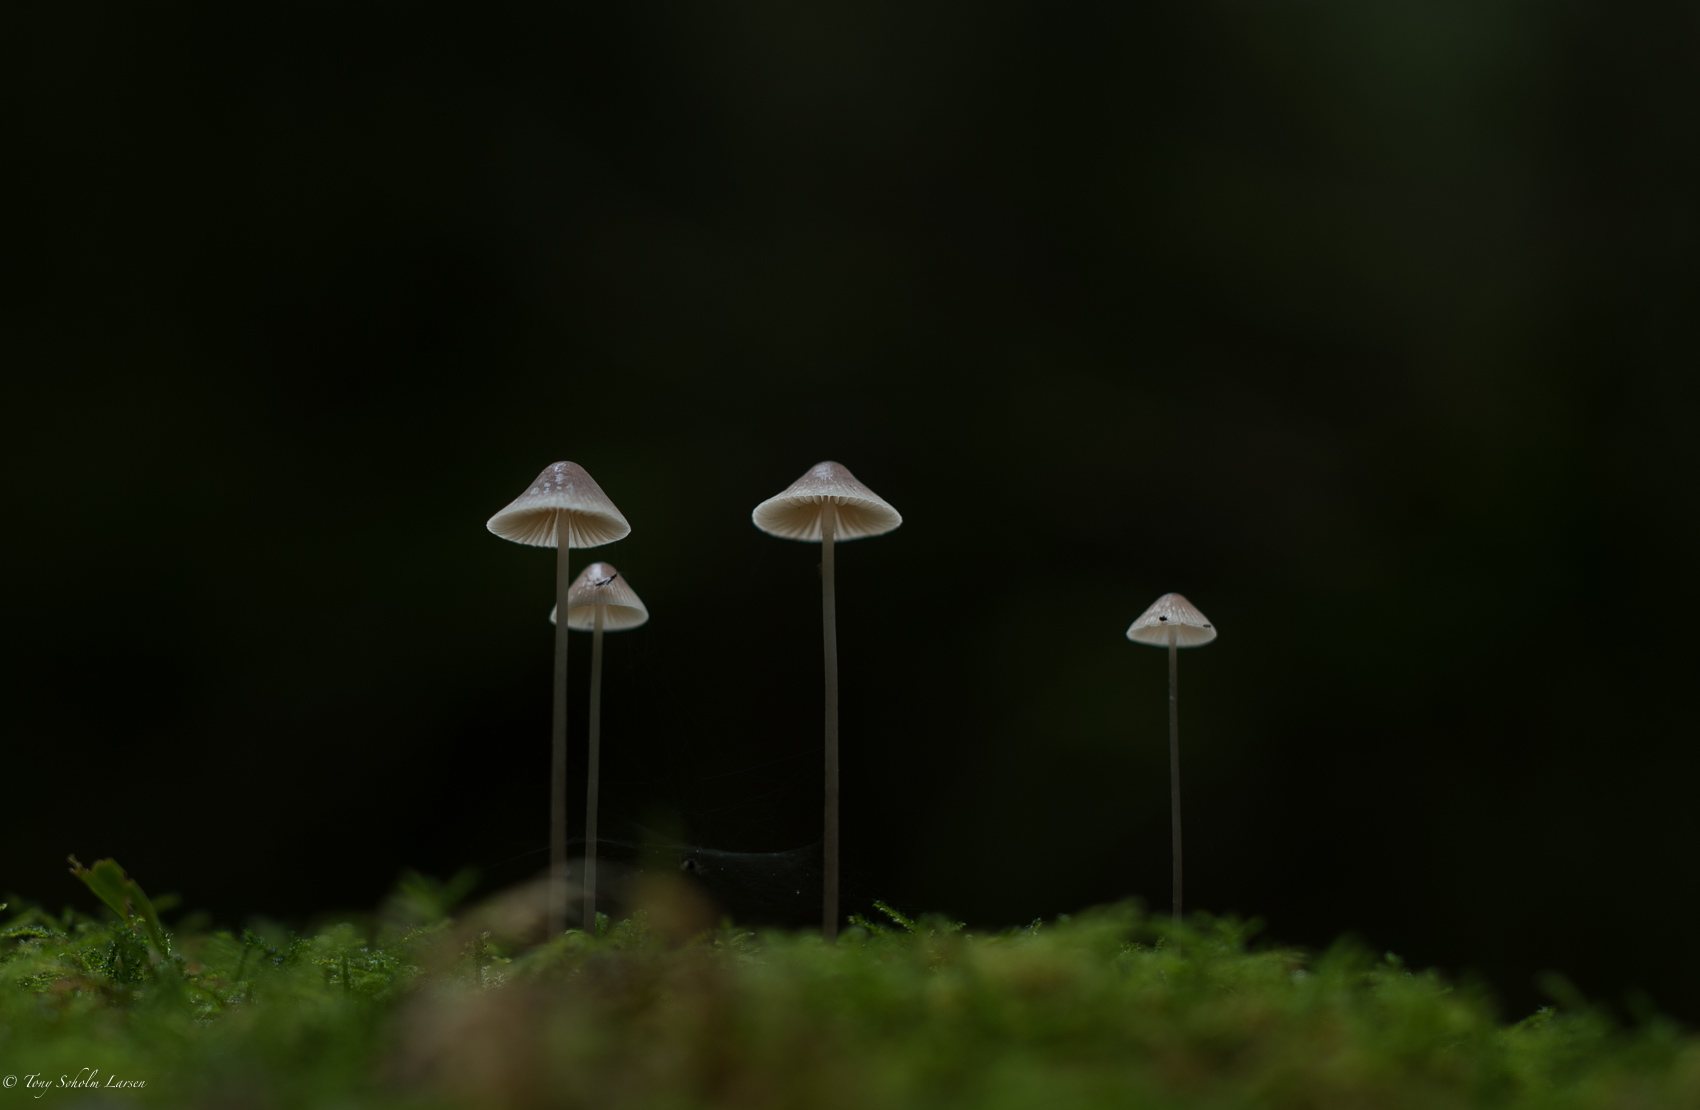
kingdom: Fungi
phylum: Basidiomycota
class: Agaricomycetes
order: Agaricales
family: Mycenaceae
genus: Mycena
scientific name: Mycena
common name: huesvamp
